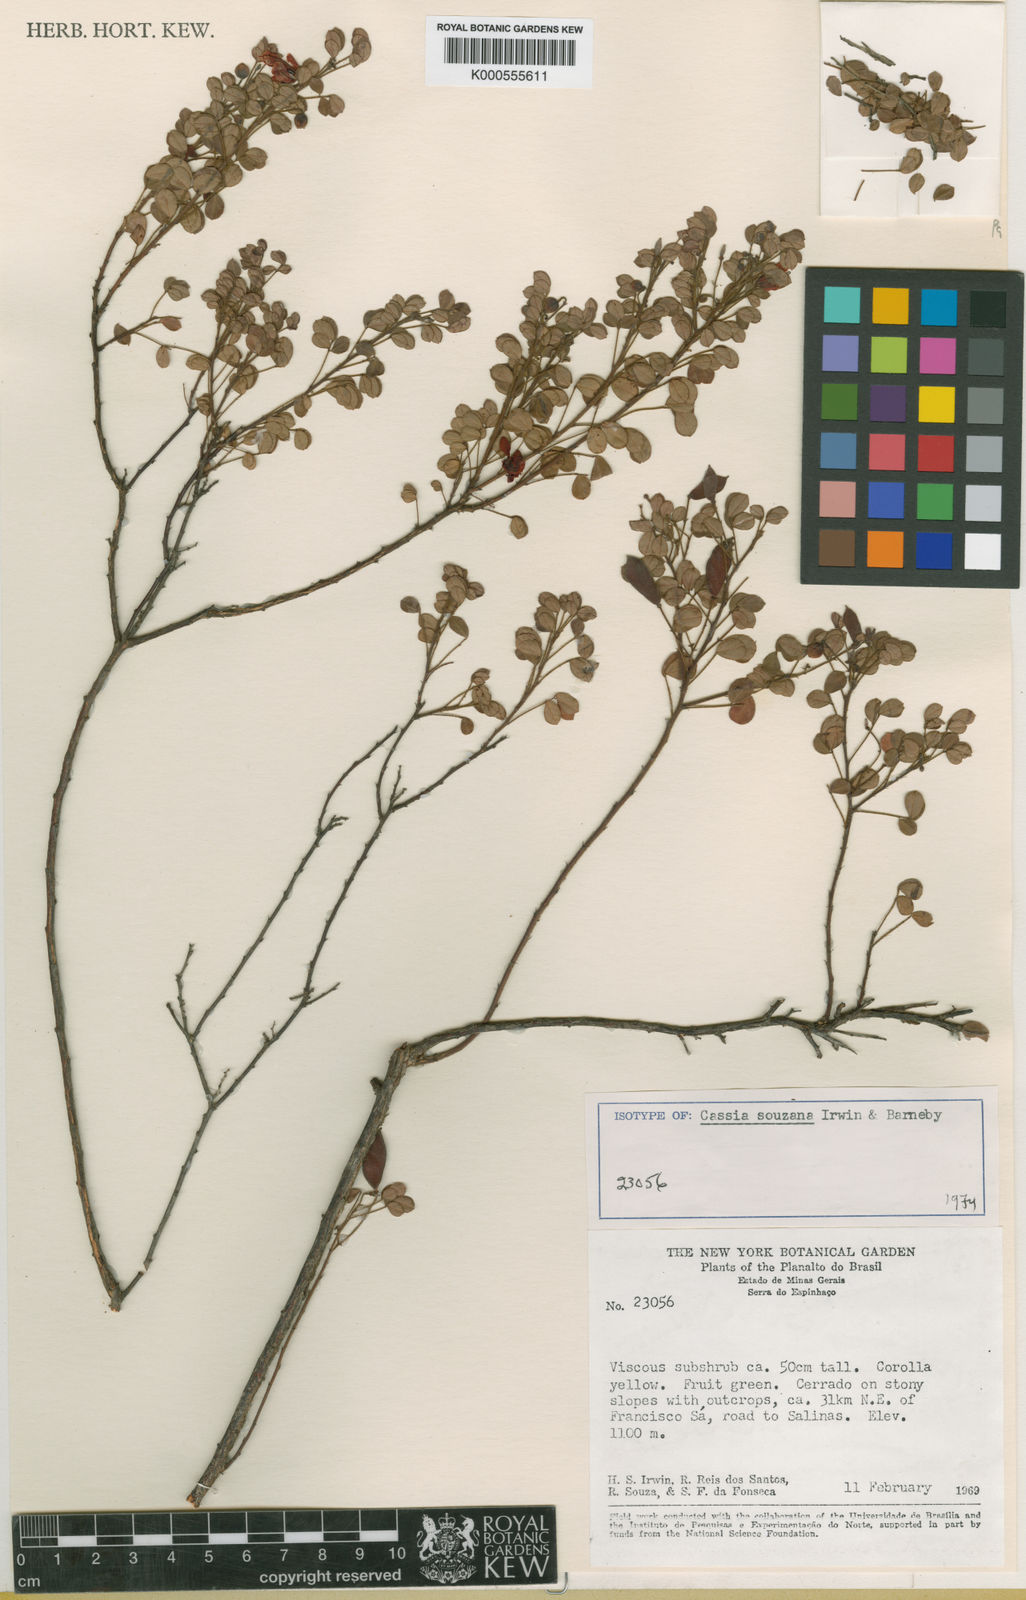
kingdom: Plantae
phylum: Tracheophyta
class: Magnoliopsida
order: Fabales
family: Fabaceae
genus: Chamaecrista
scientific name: Chamaecrista souzana
